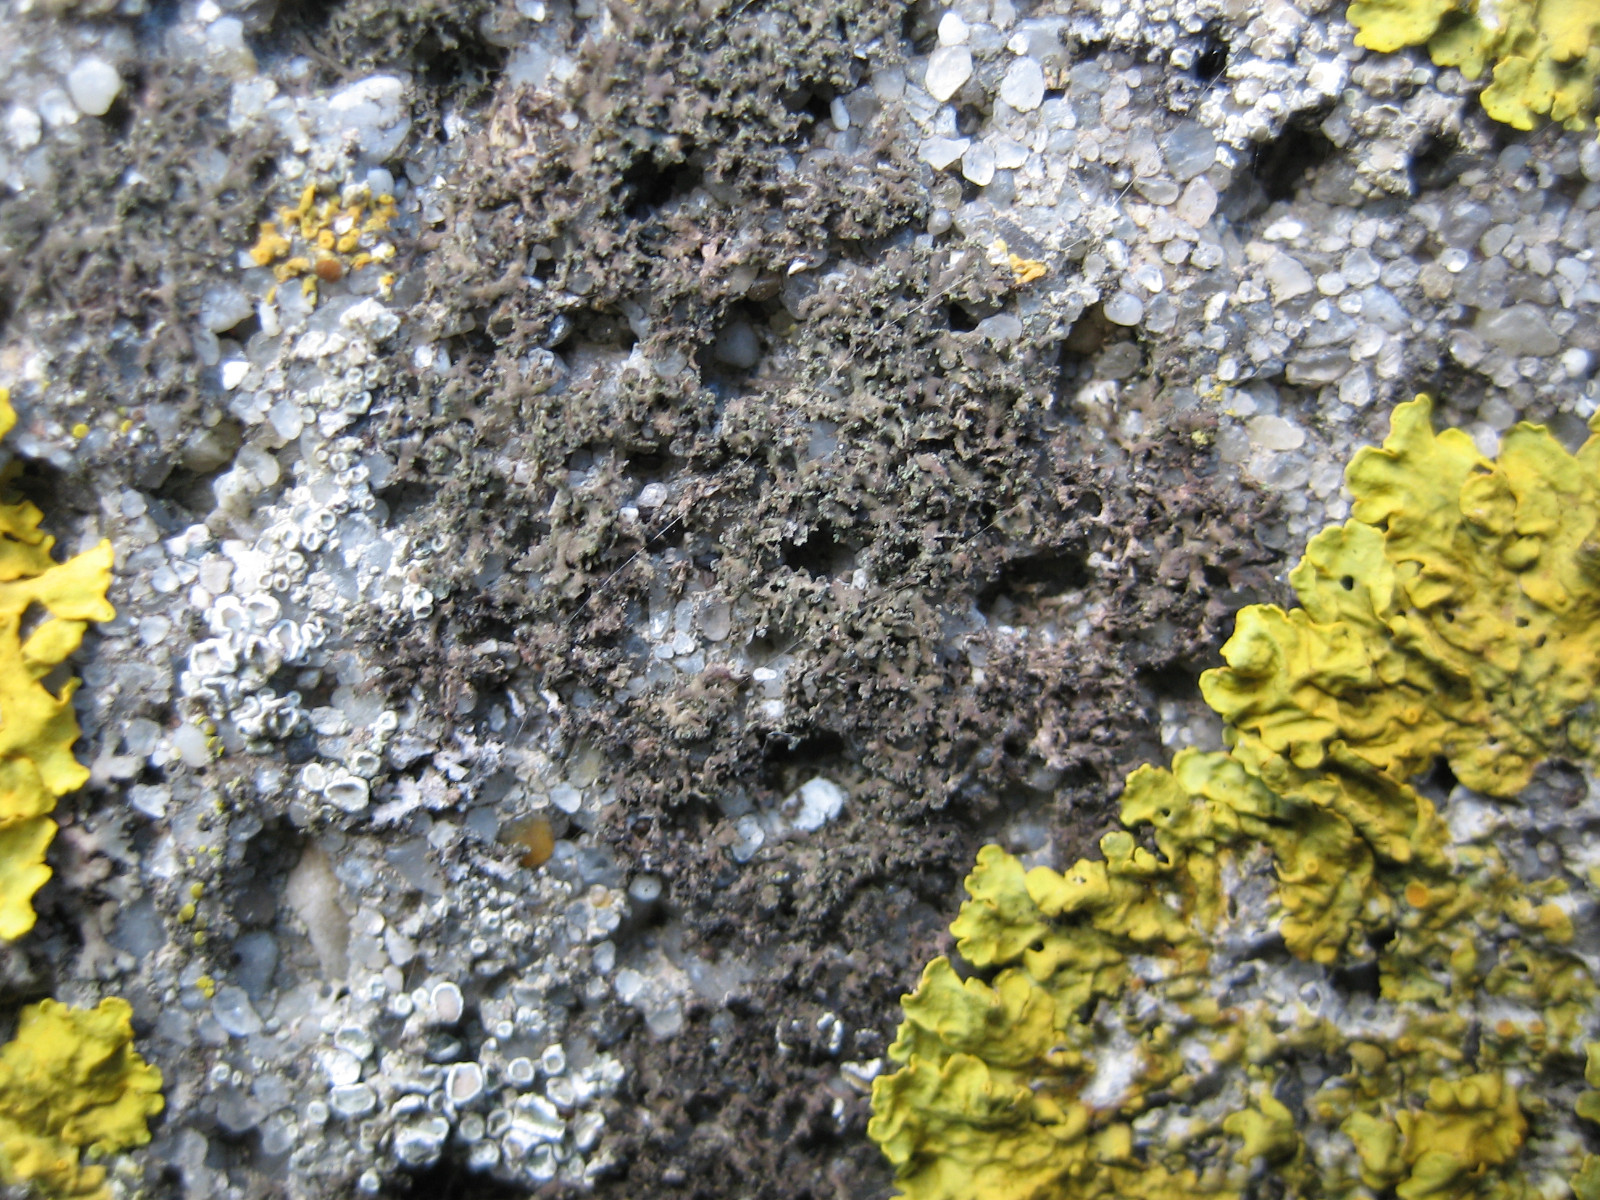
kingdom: Fungi
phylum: Ascomycota
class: Lecanoromycetes
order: Caliciales
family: Physciaceae
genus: Physciella
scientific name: Physciella nigricans
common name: sortagtig rosetlav
